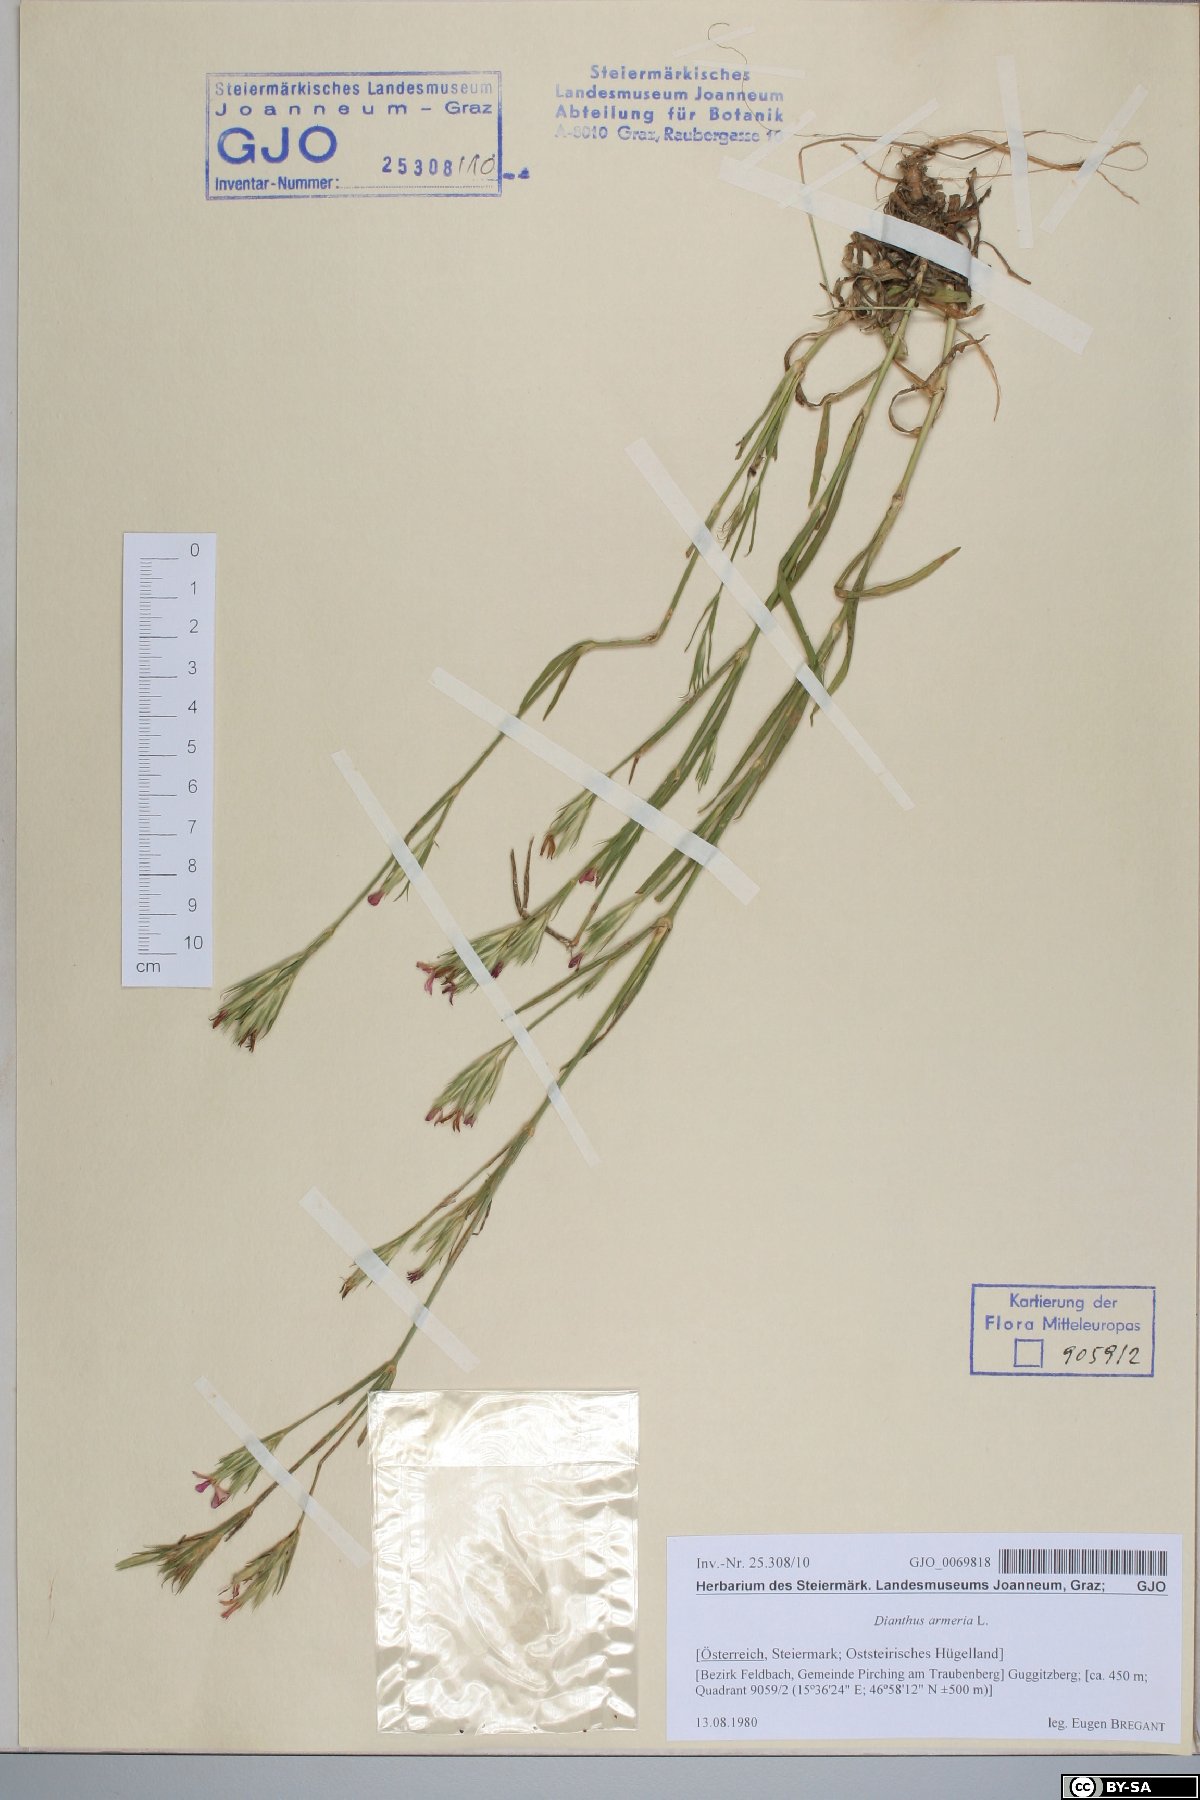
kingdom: Plantae
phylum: Tracheophyta
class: Magnoliopsida
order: Caryophyllales
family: Caryophyllaceae
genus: Dianthus
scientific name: Dianthus armeria
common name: Deptford pink
